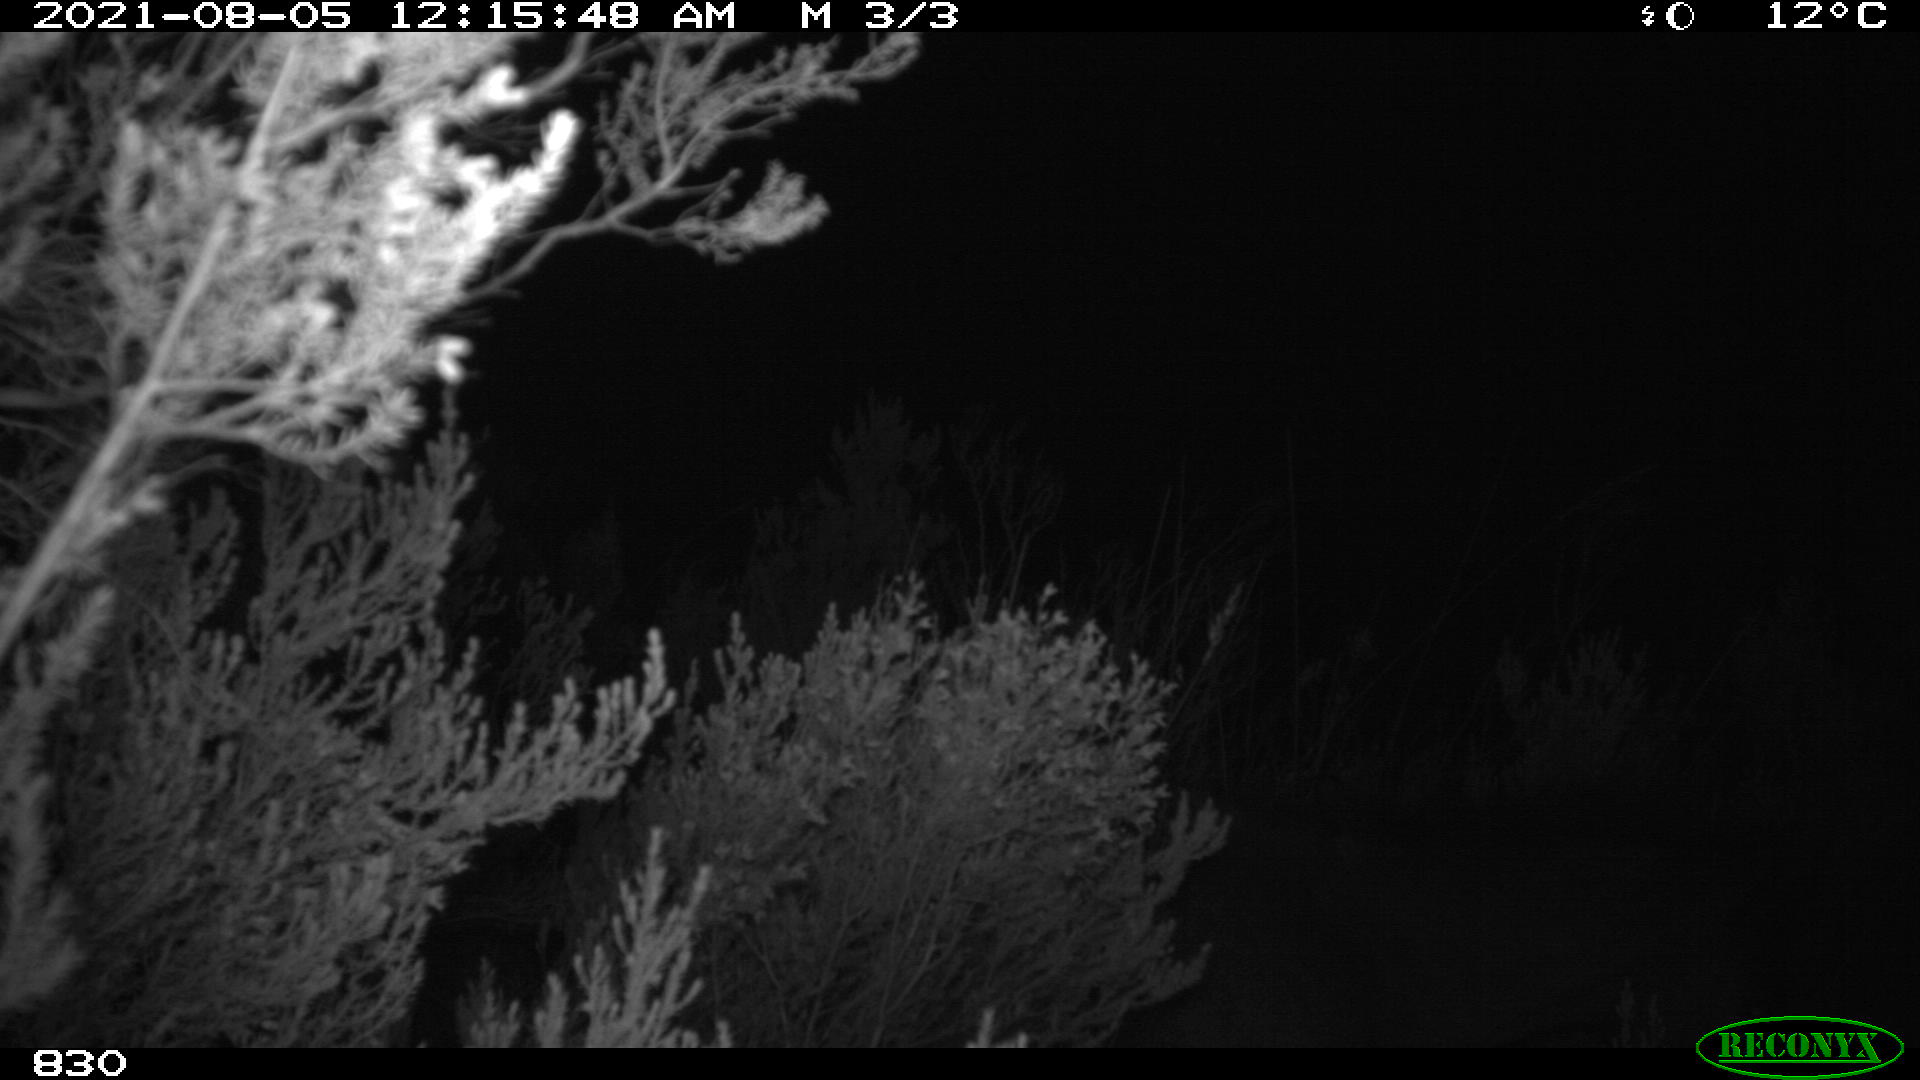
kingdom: Animalia
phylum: Chordata
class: Mammalia
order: Perissodactyla
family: Equidae
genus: Equus
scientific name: Equus caballus
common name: Horse
